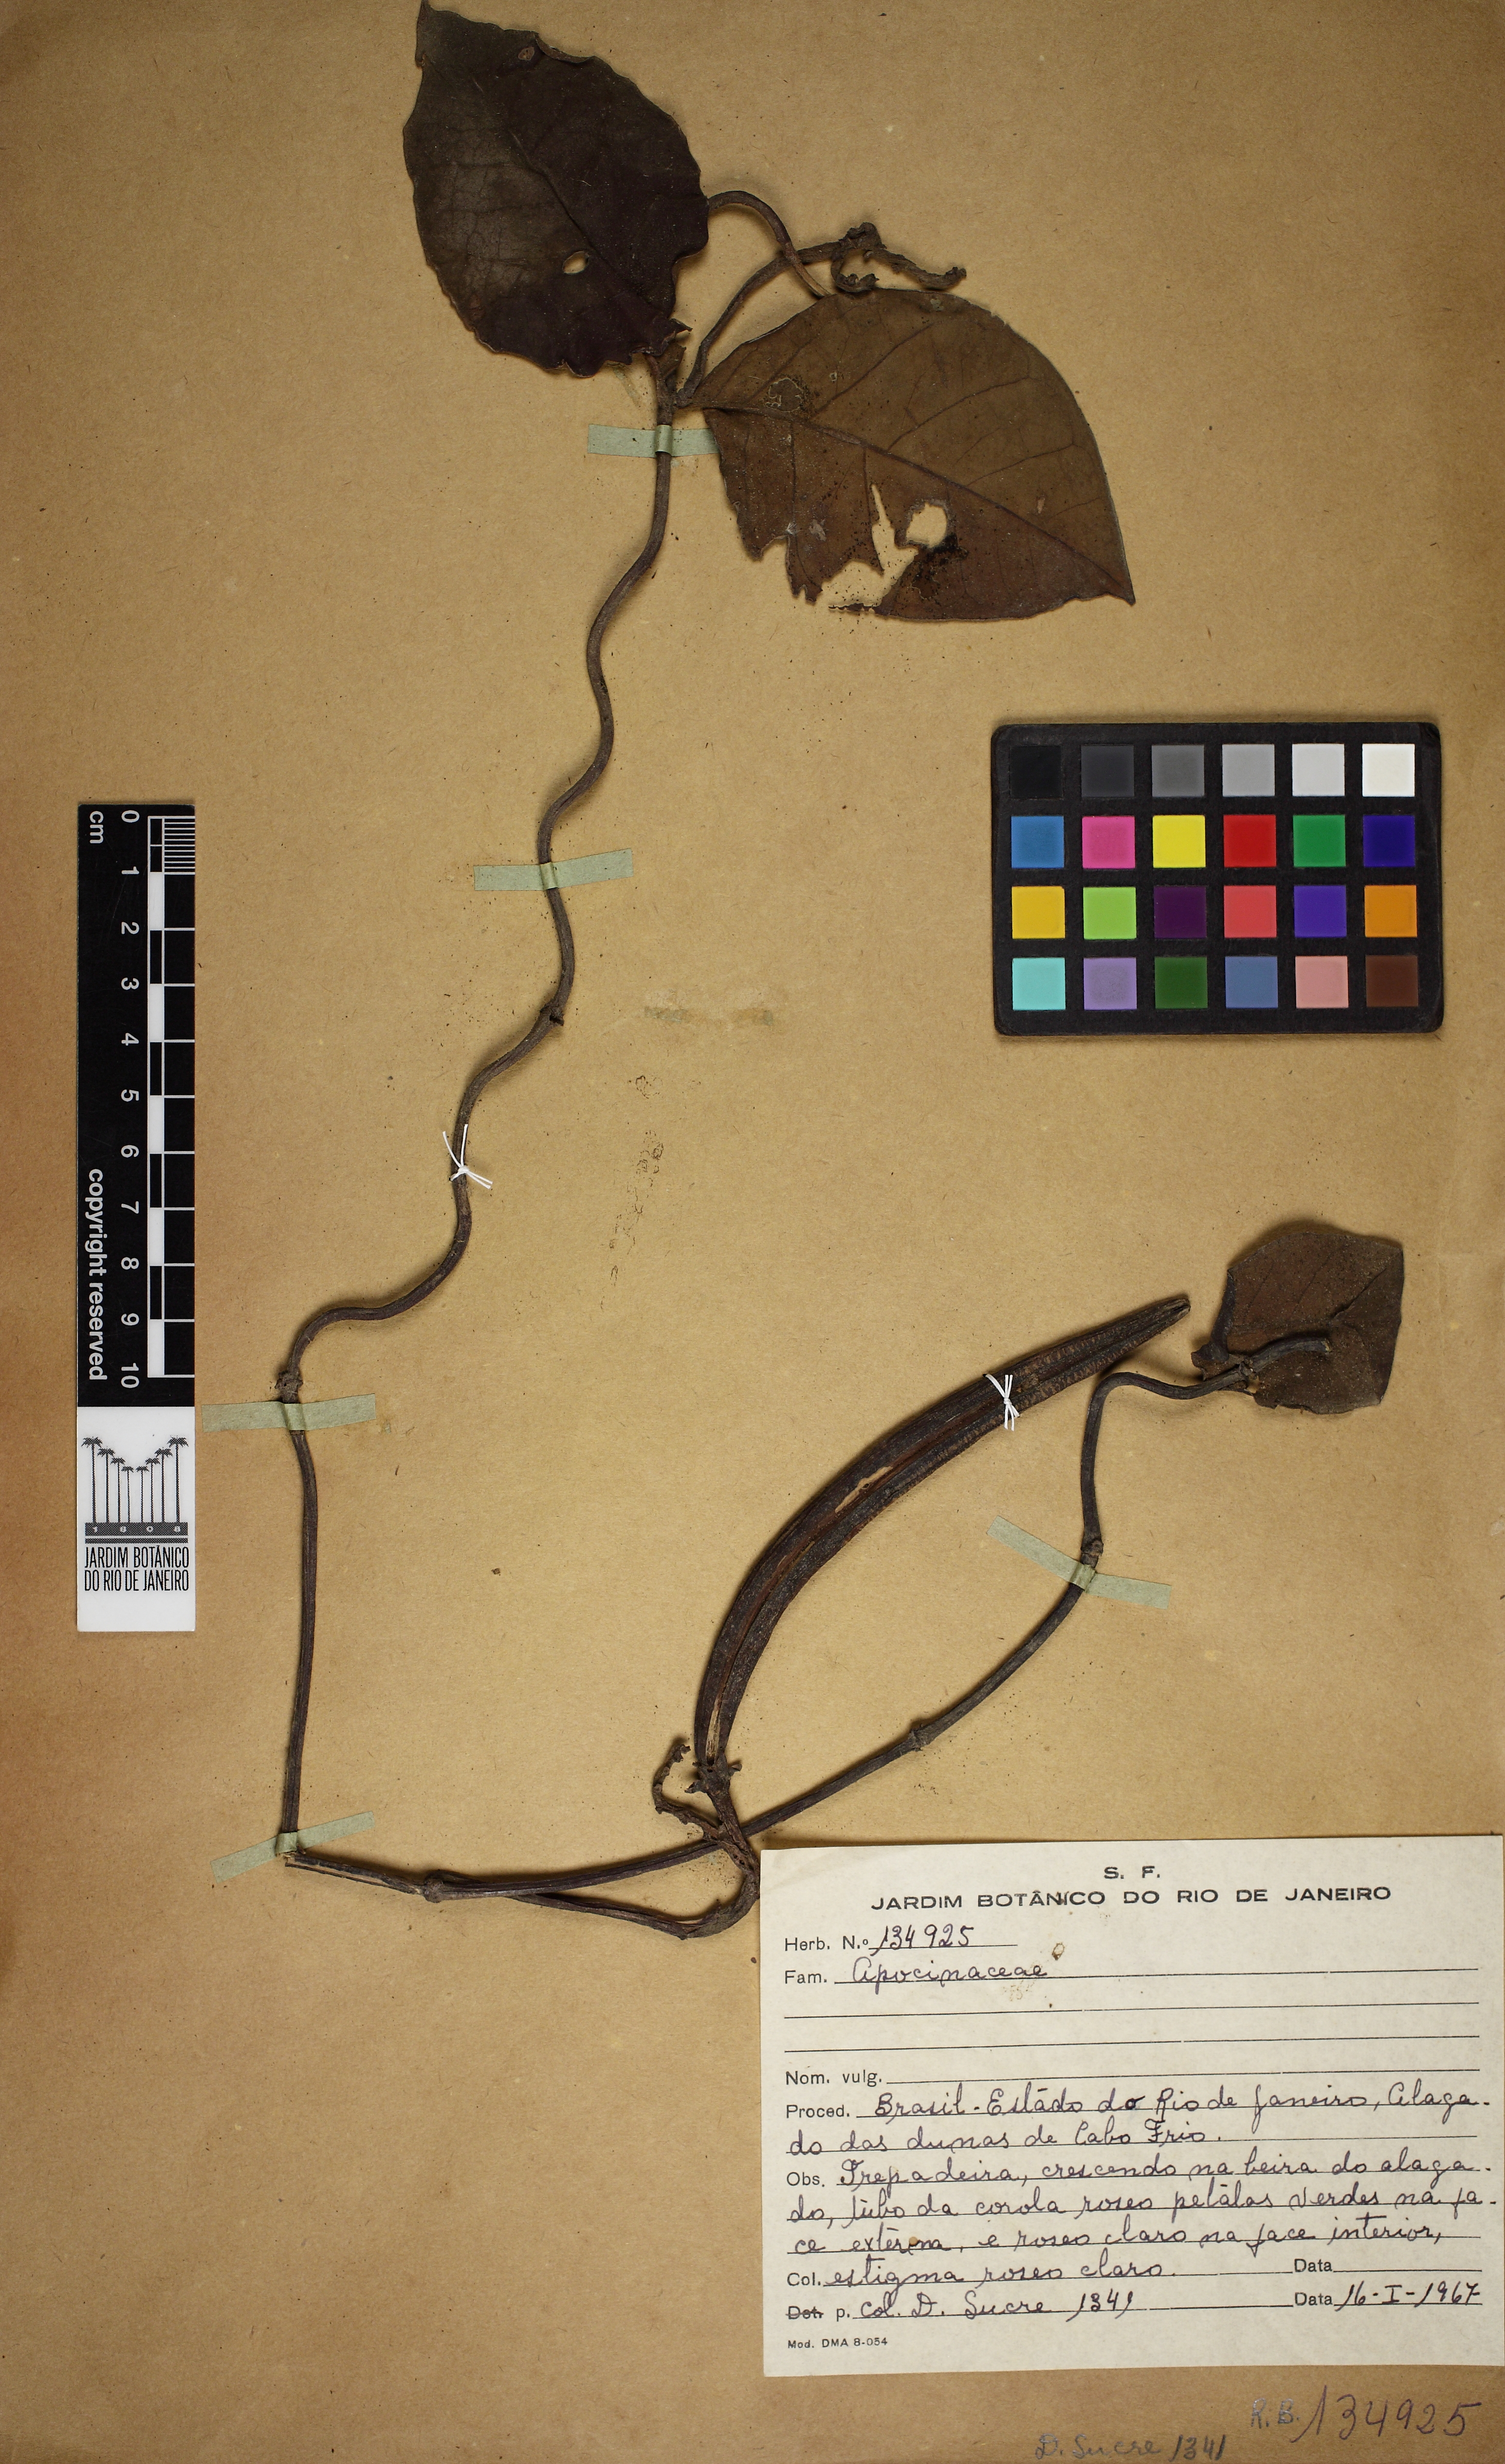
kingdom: Plantae
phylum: Tracheophyta
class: Magnoliopsida
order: Gentianales
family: Apocynaceae
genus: Temnadenia
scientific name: Temnadenia odorifera
